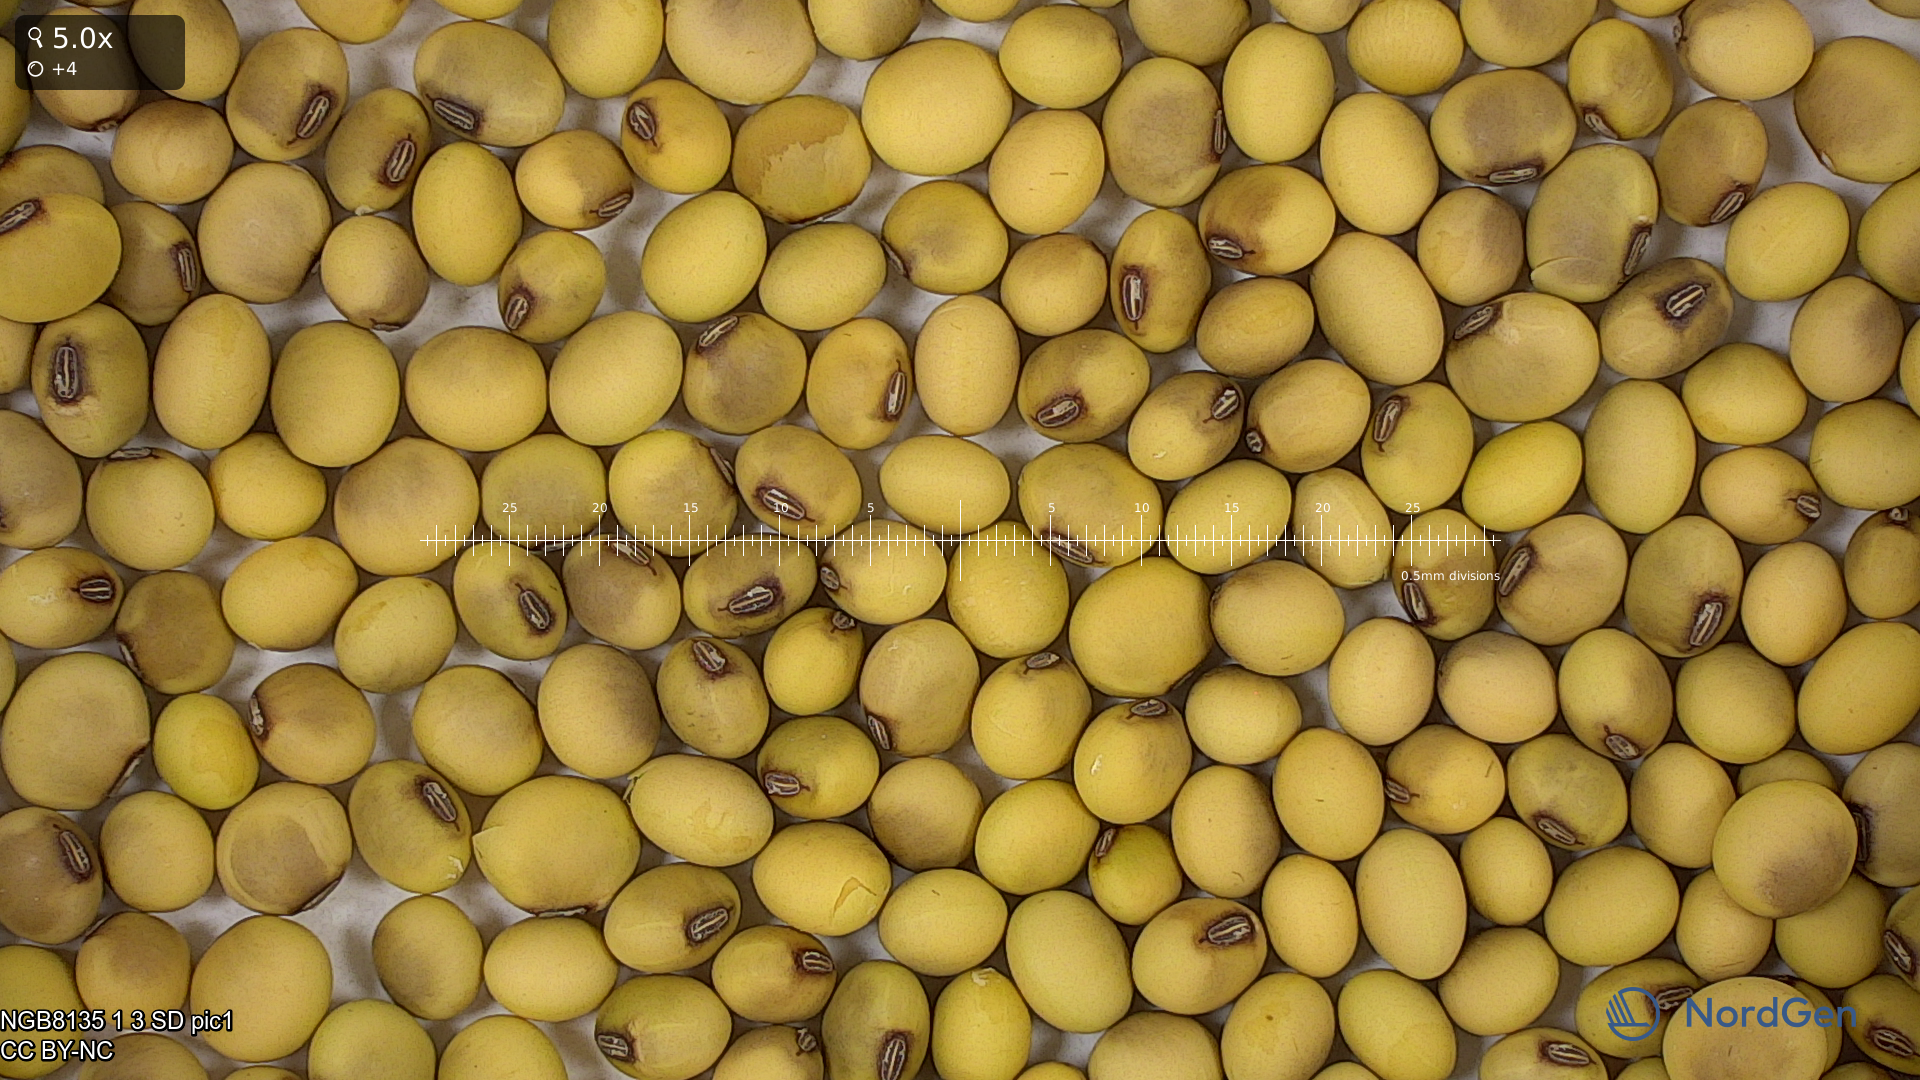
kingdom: Plantae
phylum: Tracheophyta
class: Magnoliopsida
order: Fabales
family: Fabaceae
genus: Glycine
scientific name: Glycine max
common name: Soya-bean
